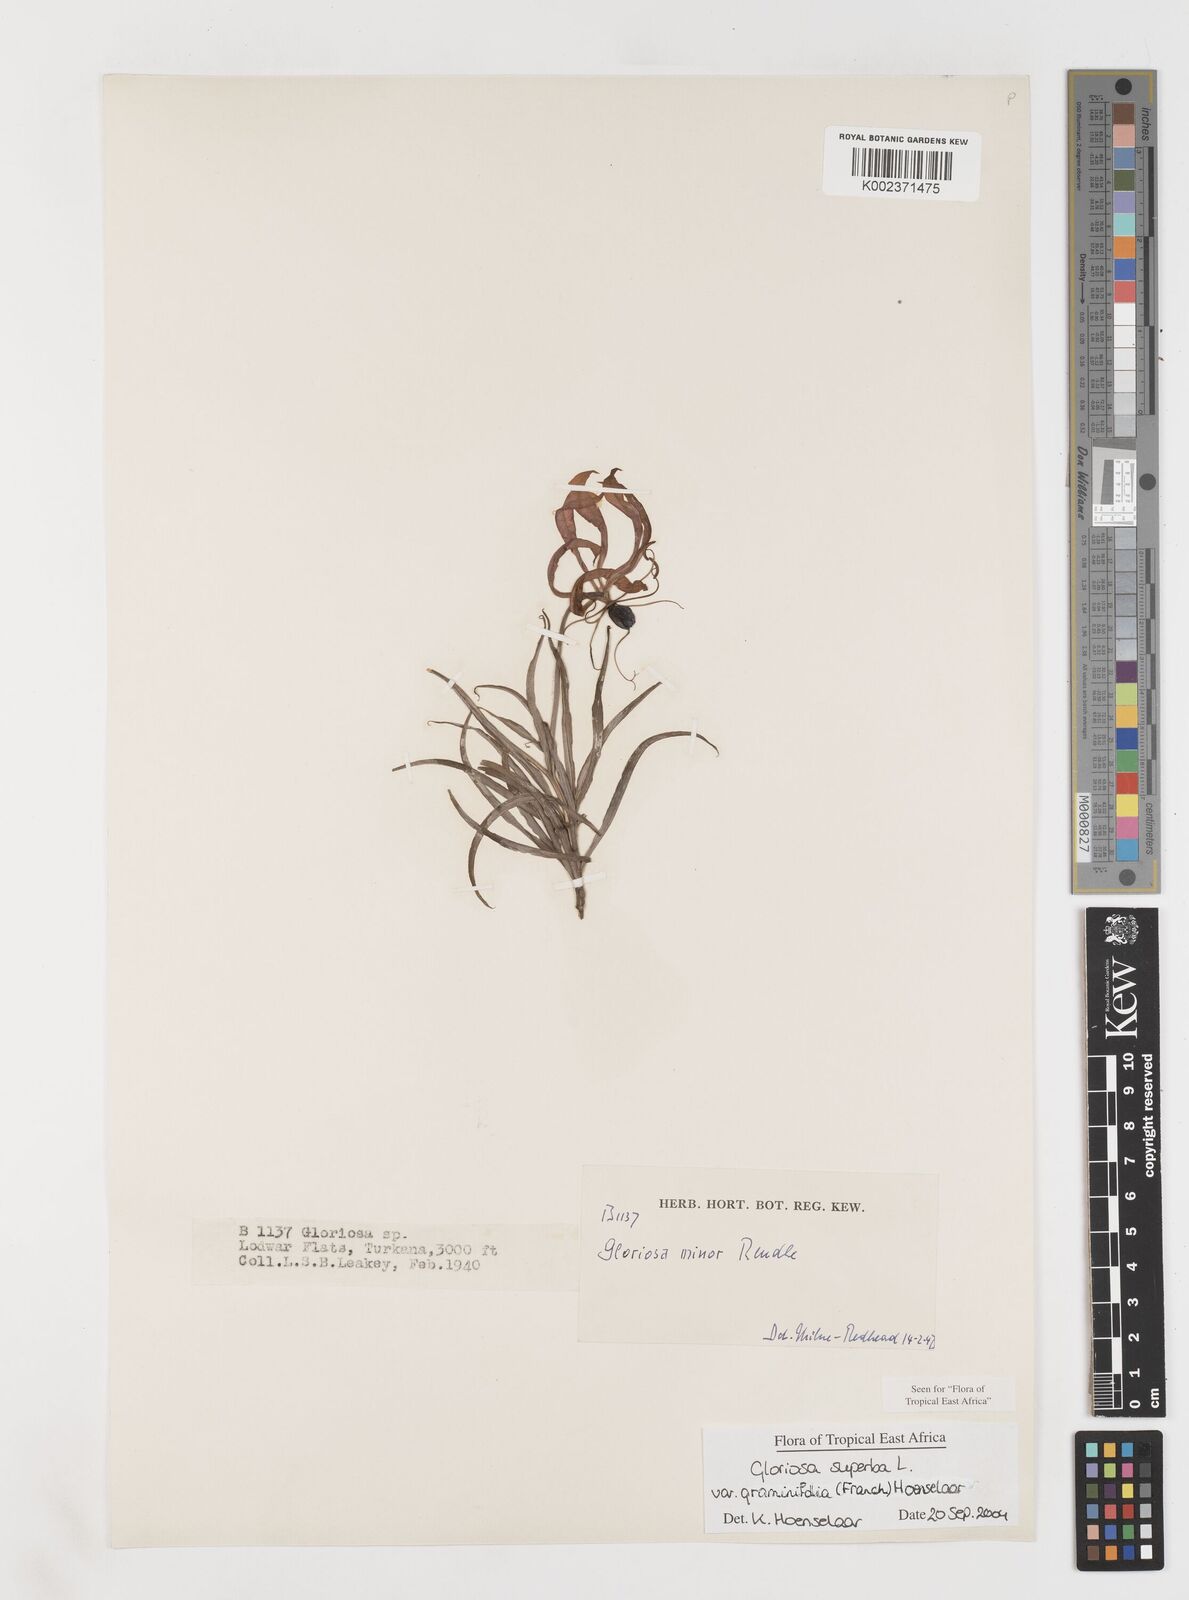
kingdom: Plantae
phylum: Tracheophyta
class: Liliopsida
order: Liliales
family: Colchicaceae
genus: Gloriosa
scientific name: Gloriosa baudii
